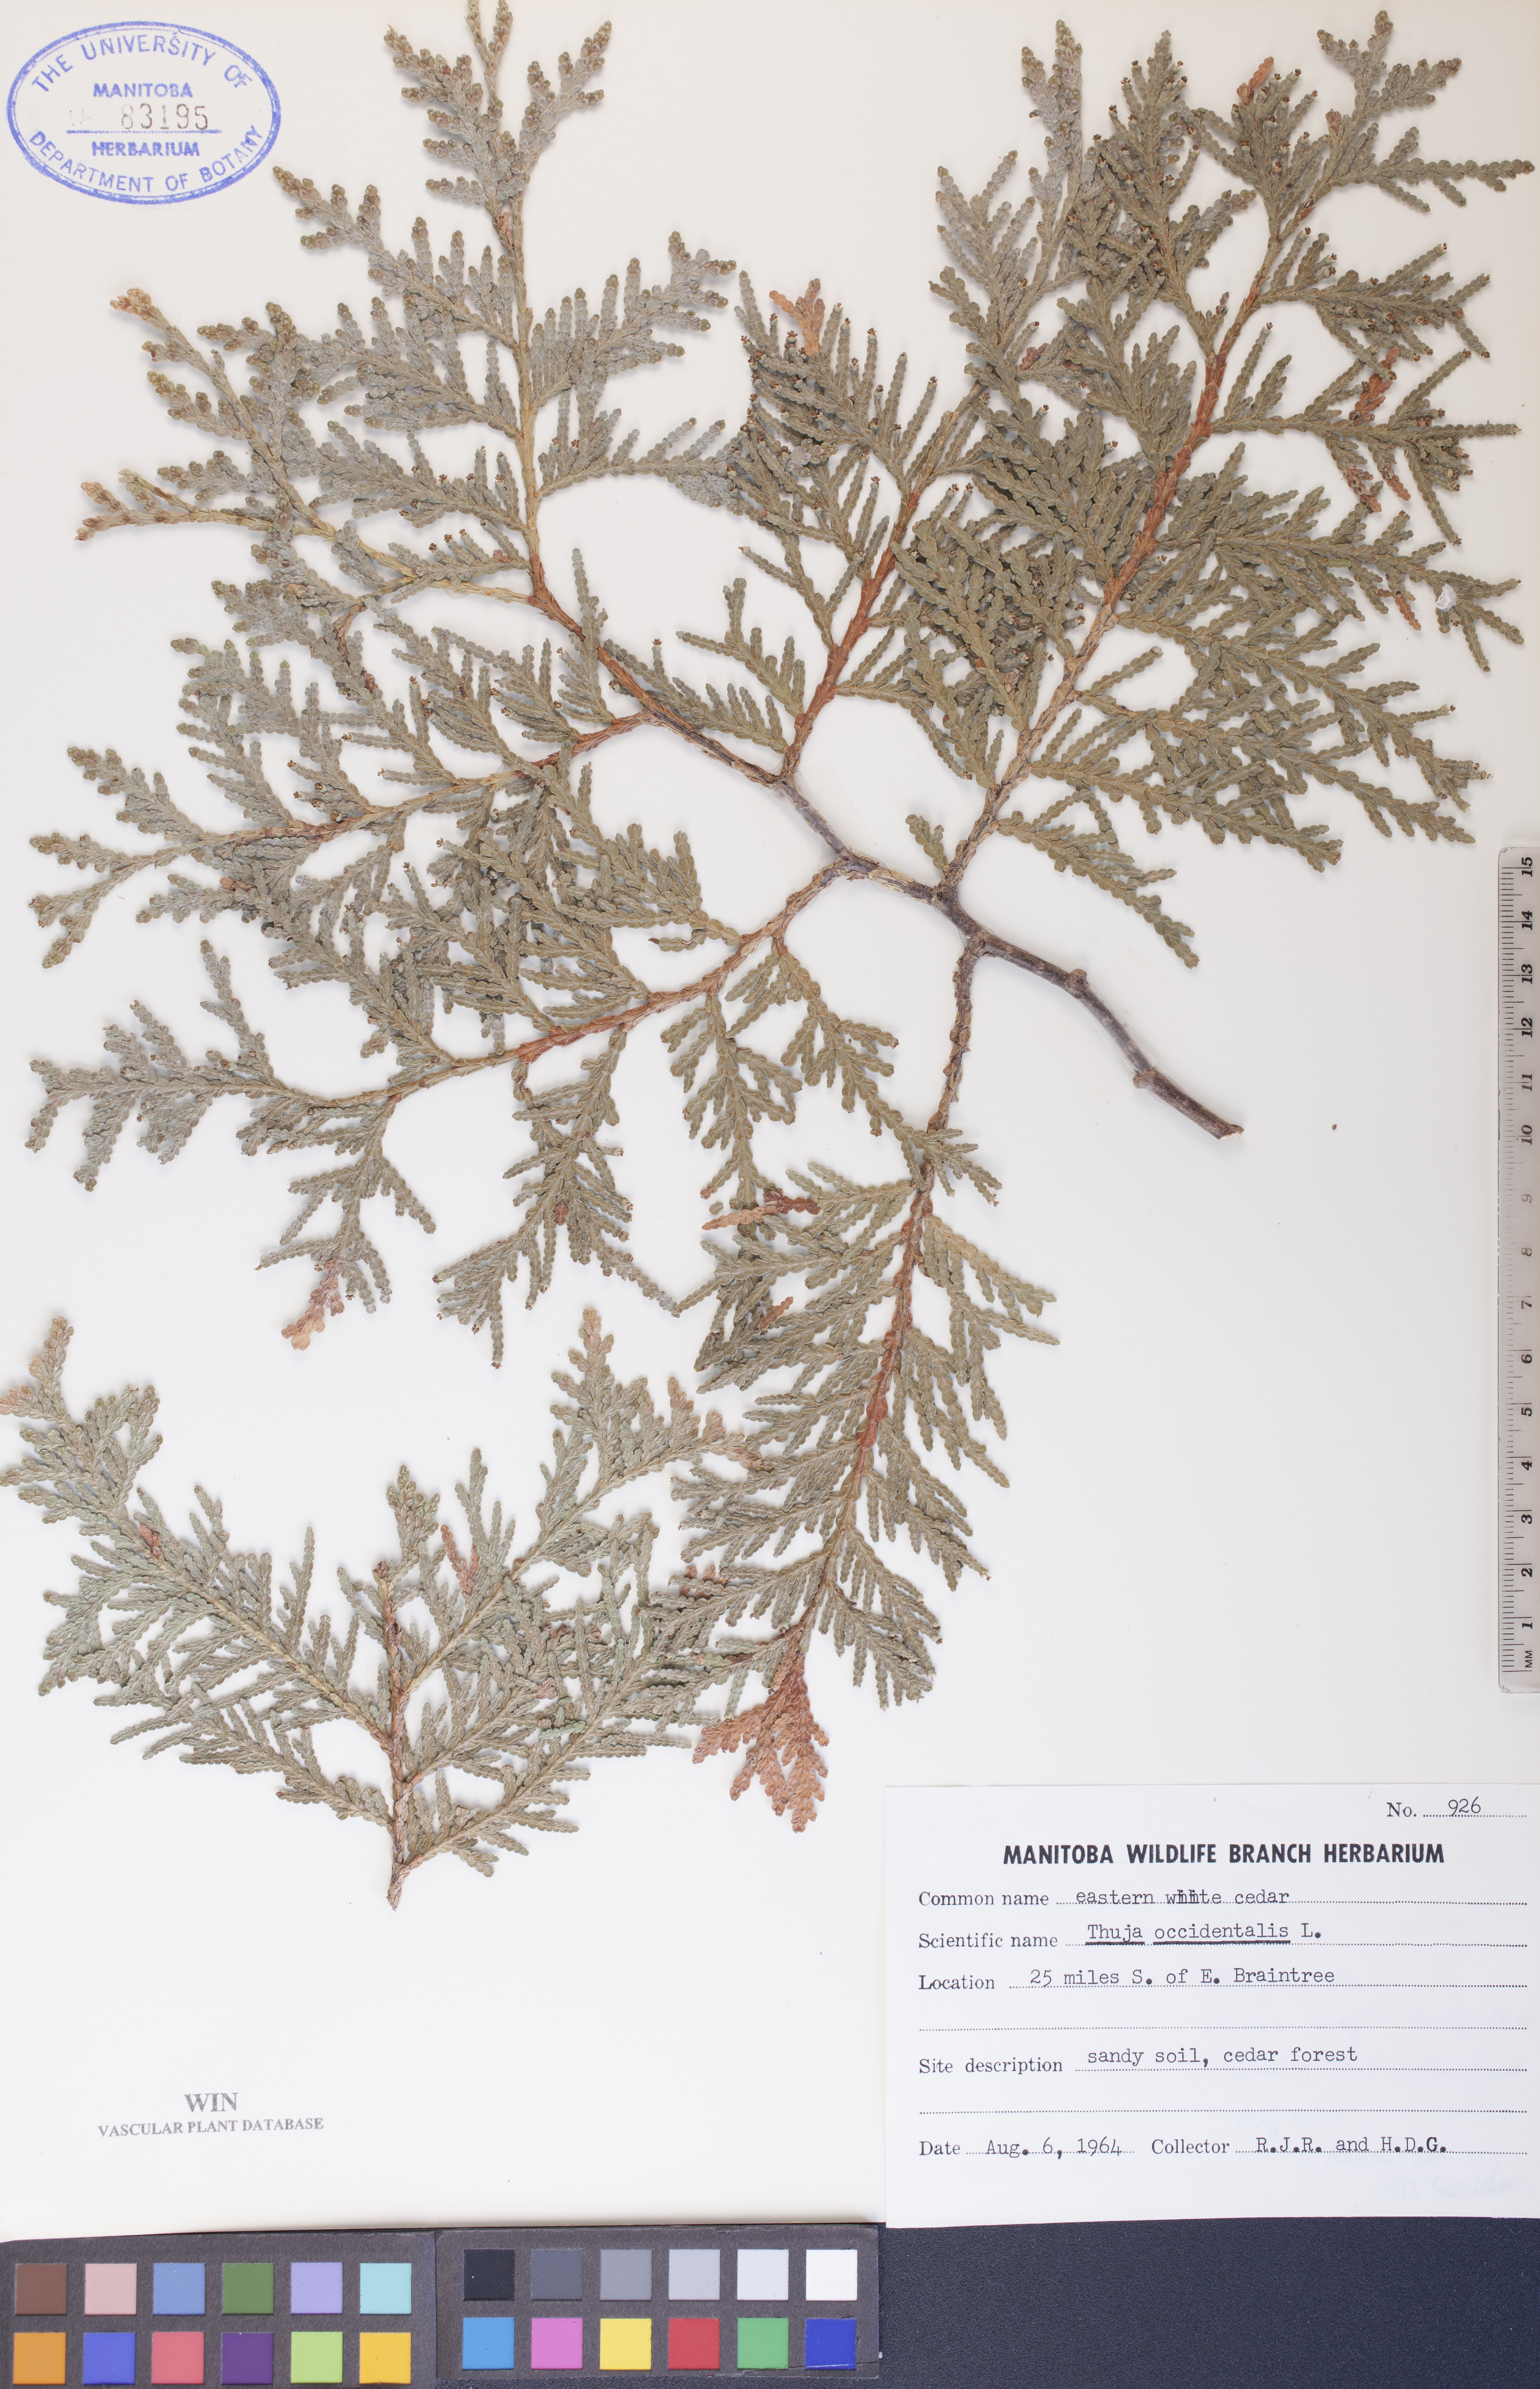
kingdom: Plantae
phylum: Tracheophyta
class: Pinopsida
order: Pinales
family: Cupressaceae
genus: Thuja
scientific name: Thuja occidentalis
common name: Northern white-cedar
